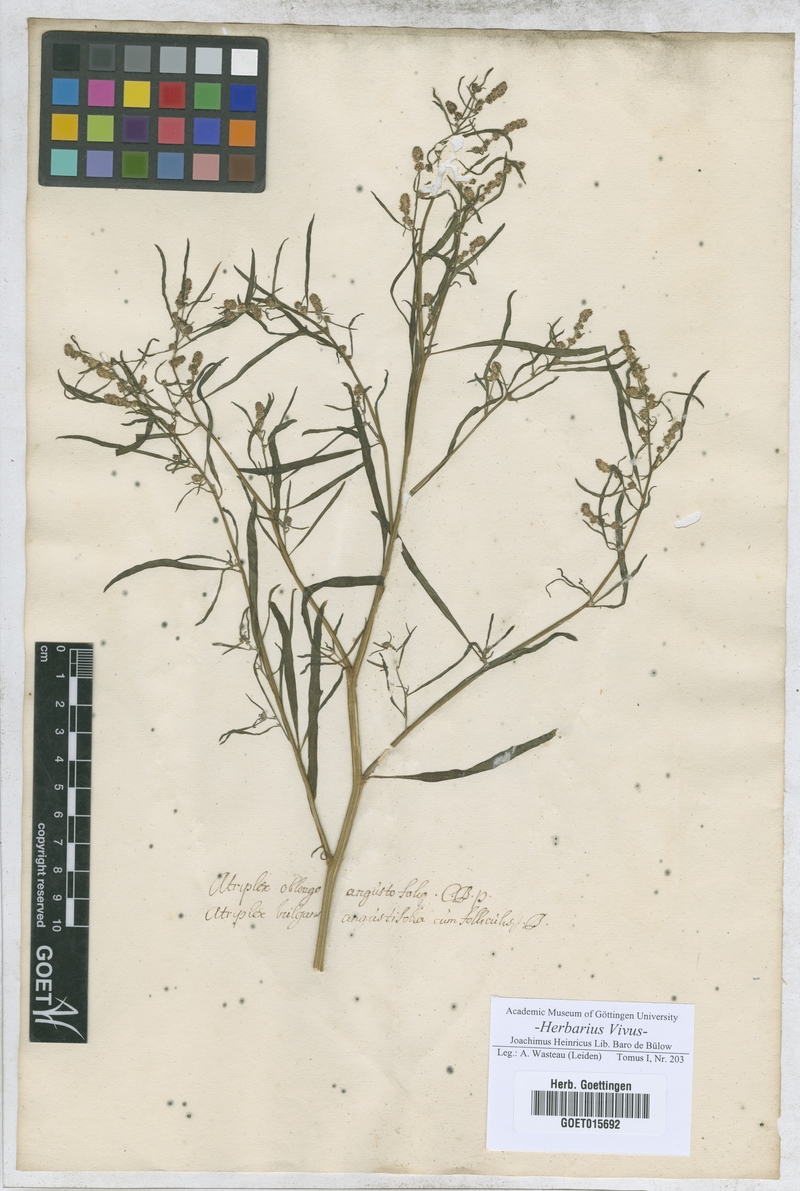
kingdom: Plantae
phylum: Tracheophyta
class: Magnoliopsida
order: Caryophyllales
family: Amaranthaceae
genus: Atriplex
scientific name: Atriplex patula
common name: Common orache
